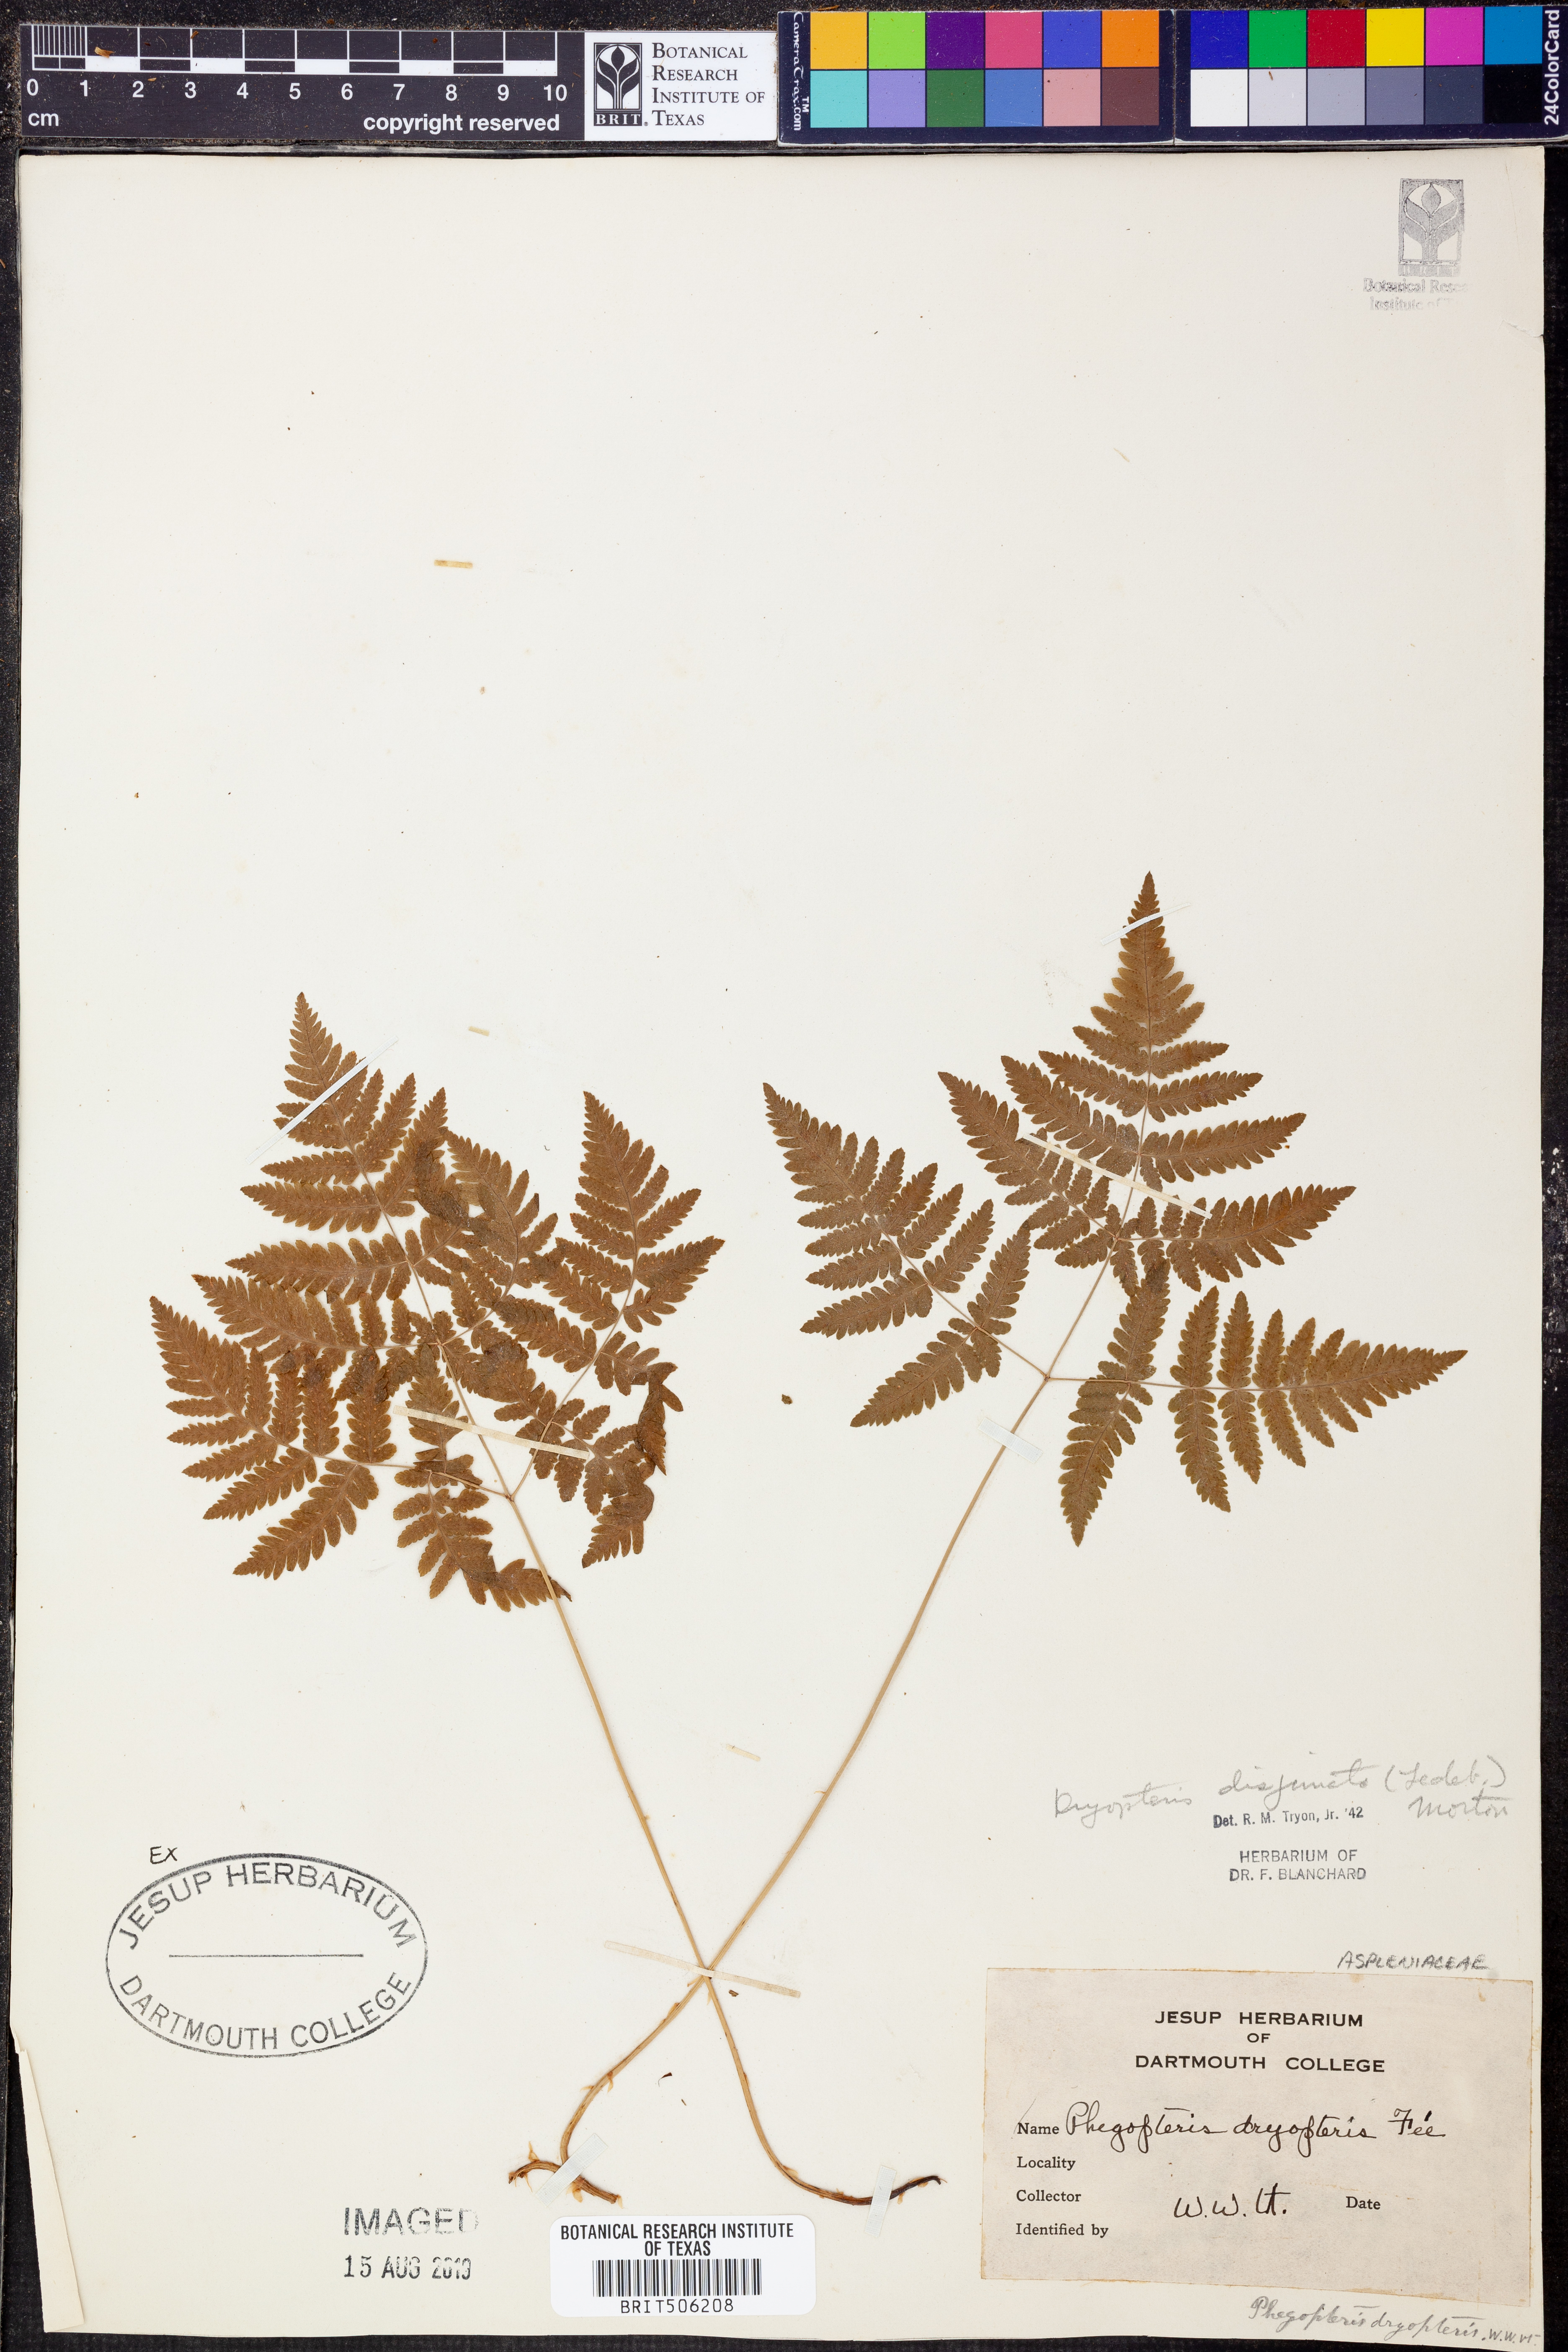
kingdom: Plantae
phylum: Tracheophyta
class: Polypodiopsida
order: Polypodiales
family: Cystopteridaceae
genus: Gymnocarpium
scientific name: Gymnocarpium disjunctum
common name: Western oak fern
